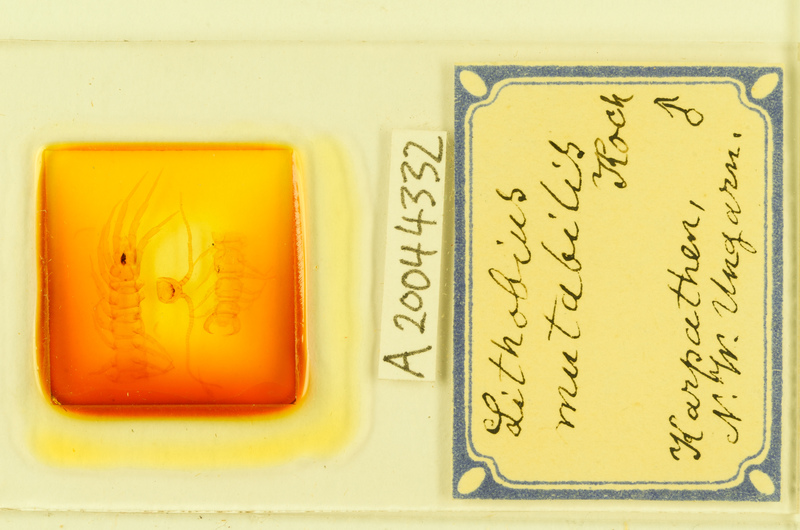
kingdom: Animalia
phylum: Arthropoda
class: Chilopoda
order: Lithobiomorpha
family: Lithobiidae
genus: Lithobius
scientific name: Lithobius mutabilis
